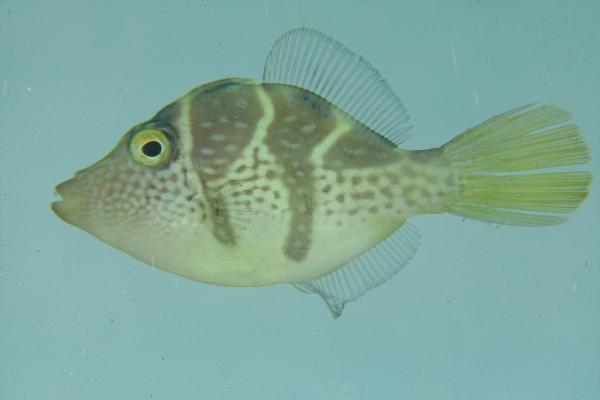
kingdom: Animalia
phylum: Chordata
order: Tetraodontiformes
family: Monacanthidae
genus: Paraluteres
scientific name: Paraluteres prionurus
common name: Black-saddled leatherjacket
